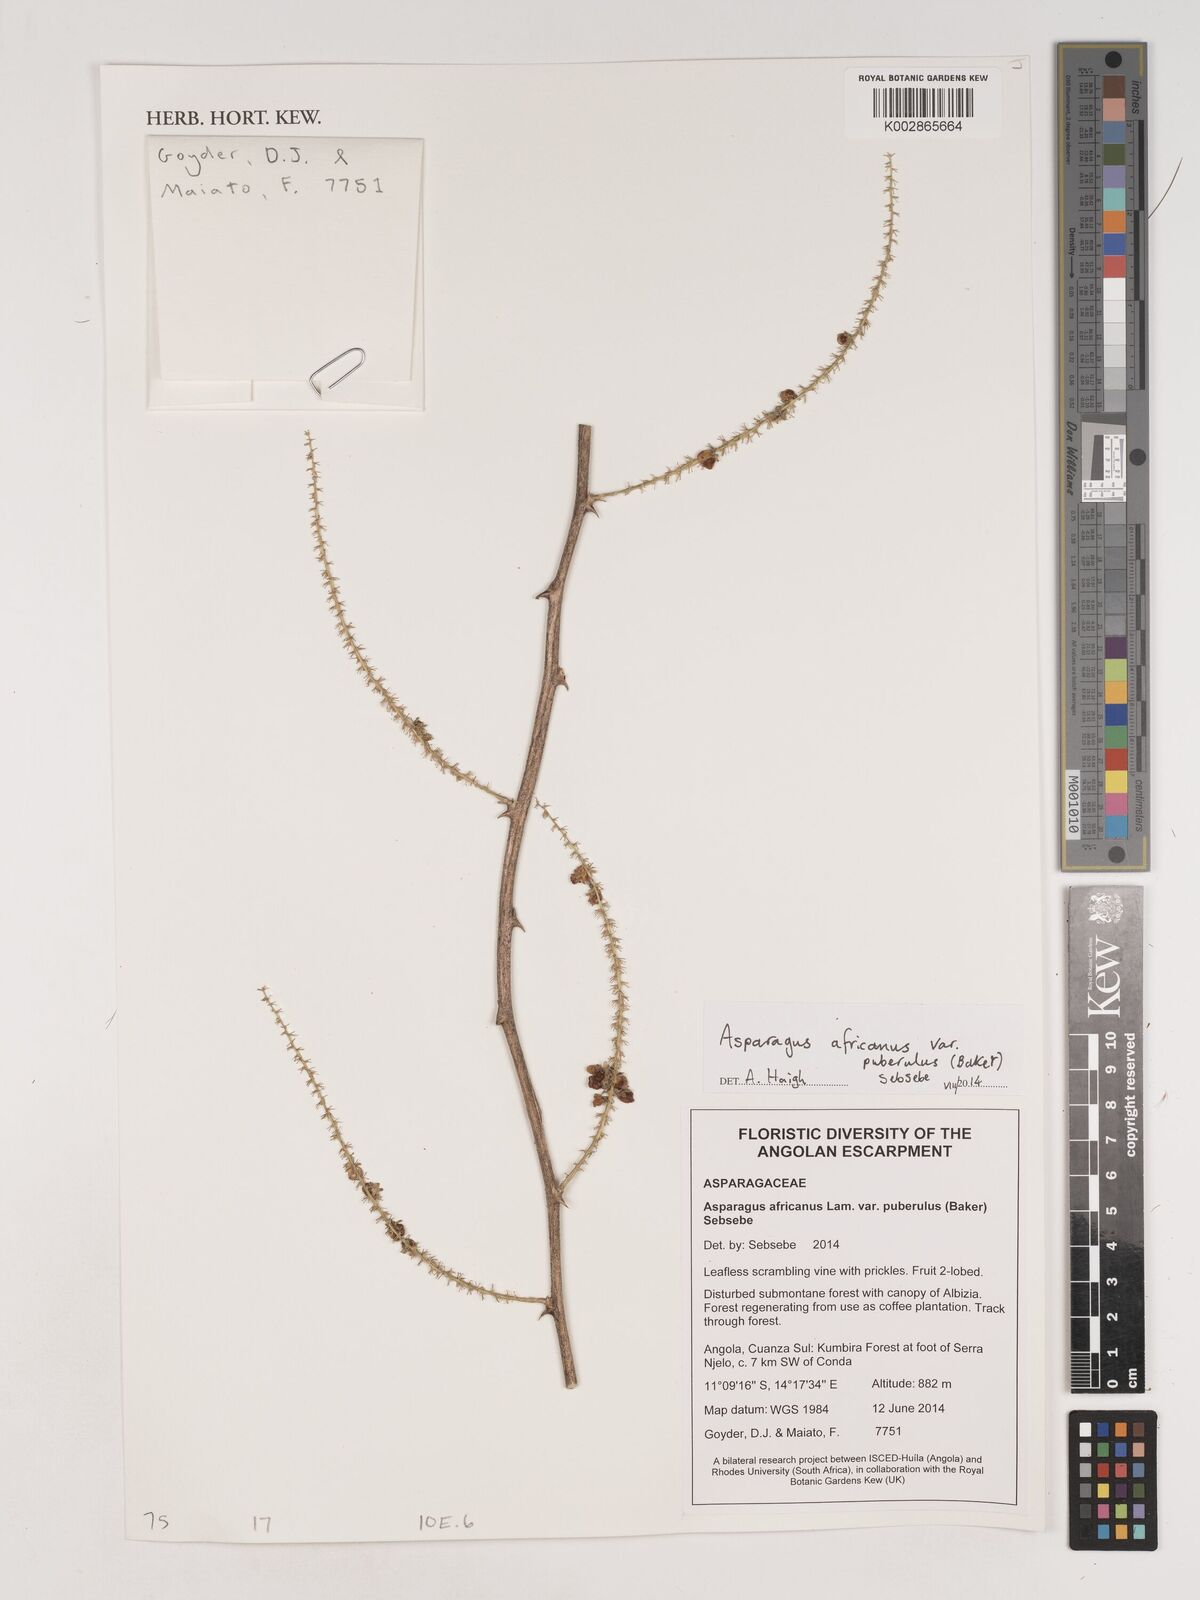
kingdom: Plantae
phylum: Tracheophyta
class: Liliopsida
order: Asparagales
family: Asparagaceae
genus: Asparagus
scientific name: Asparagus africanus
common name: Asparagus-fern
